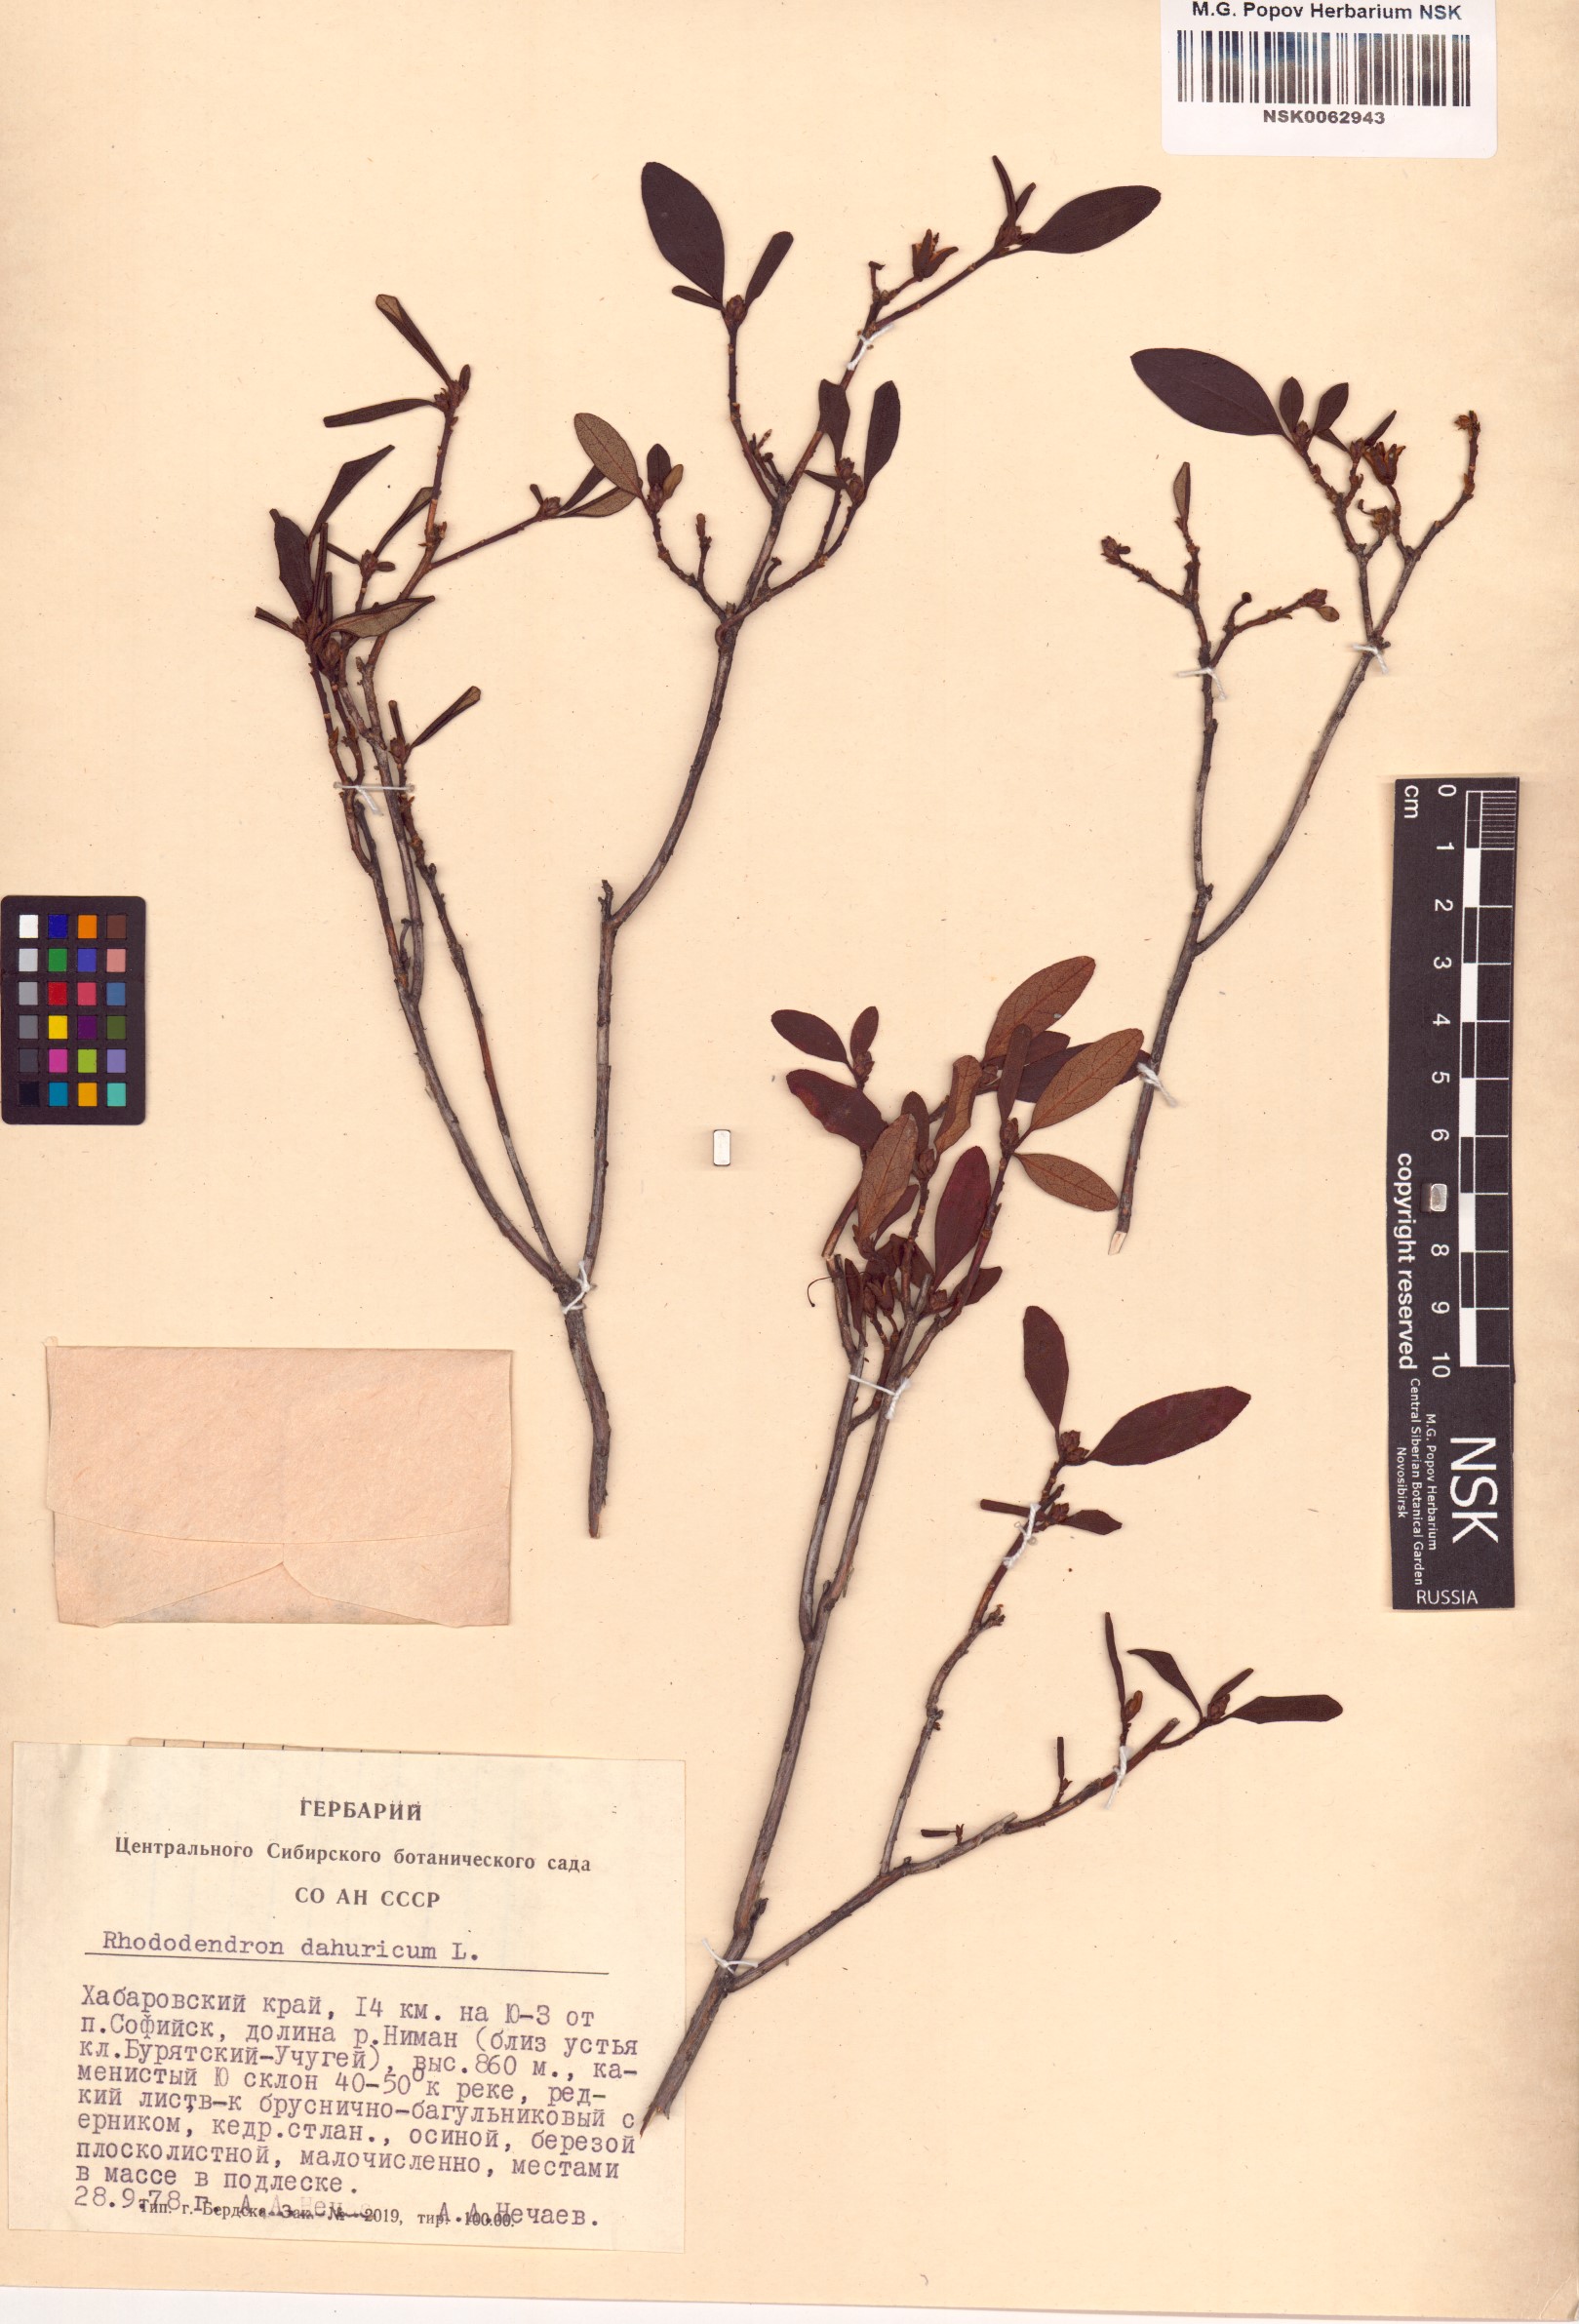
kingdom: Plantae
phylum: Tracheophyta
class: Magnoliopsida
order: Ericales
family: Ericaceae
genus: Rhododendron
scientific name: Rhododendron dauricum
